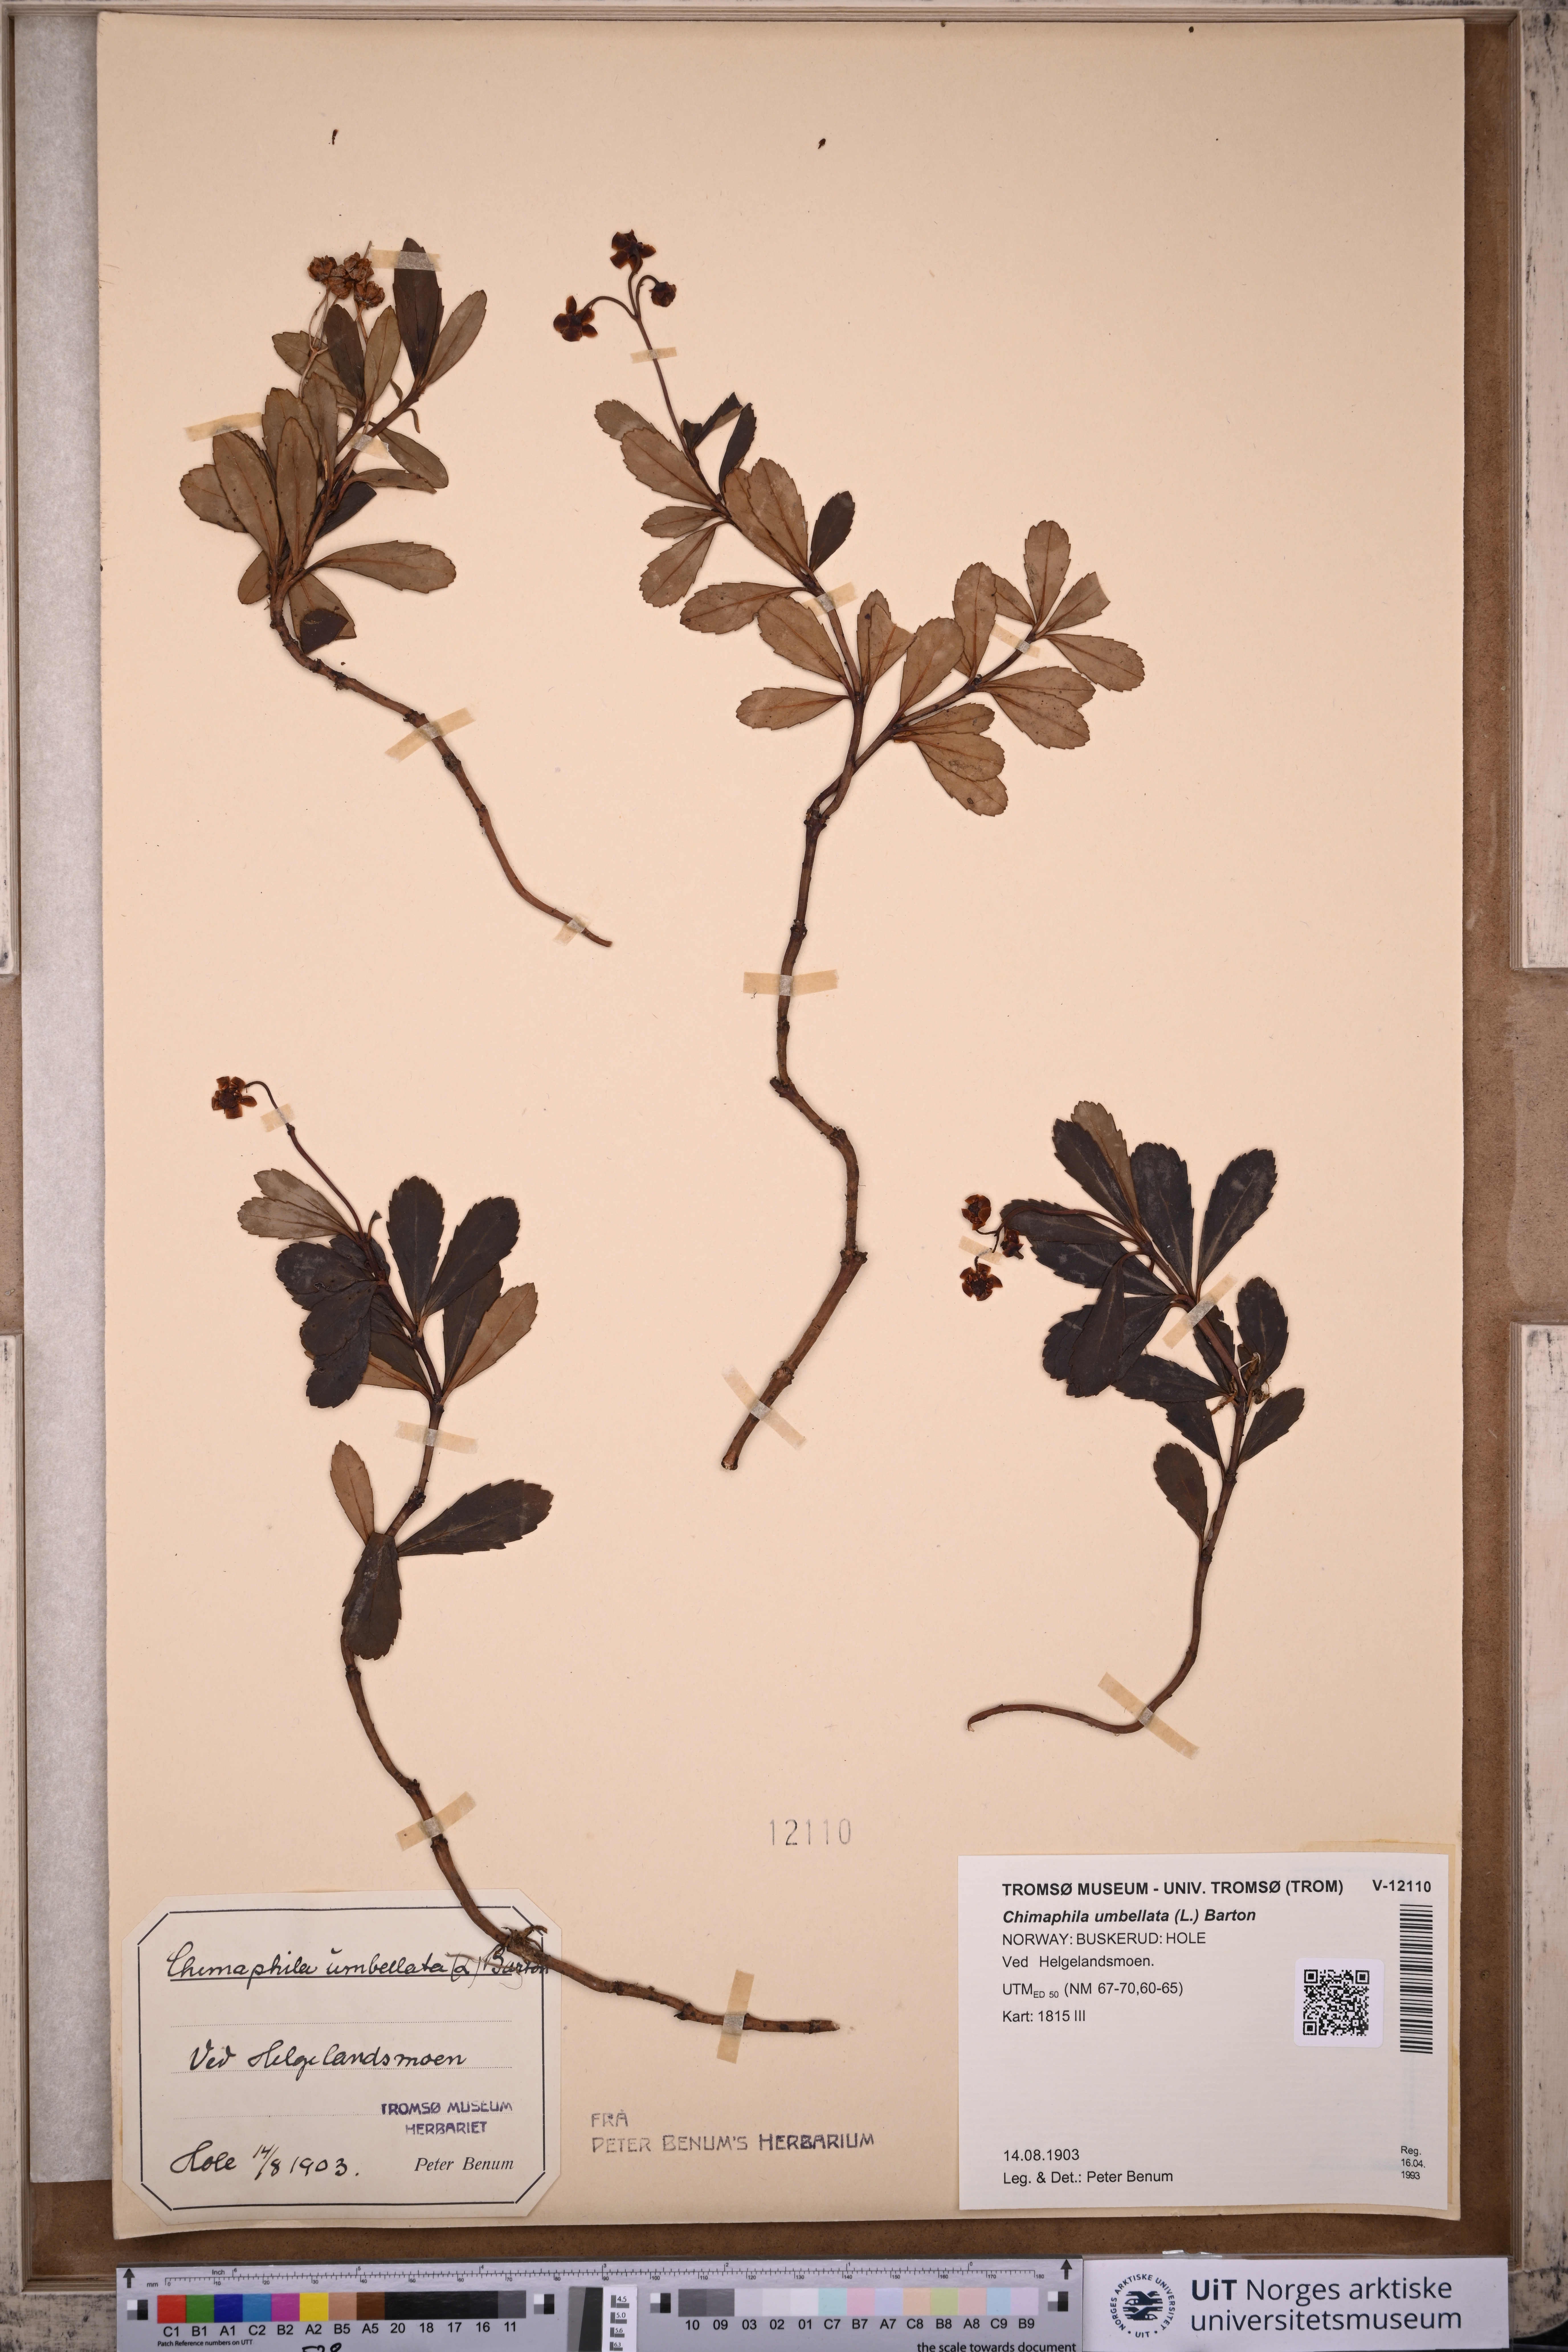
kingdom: Plantae
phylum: Tracheophyta
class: Magnoliopsida
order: Ericales
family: Ericaceae
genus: Chimaphila
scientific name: Chimaphila umbellata
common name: Pipsissewa
